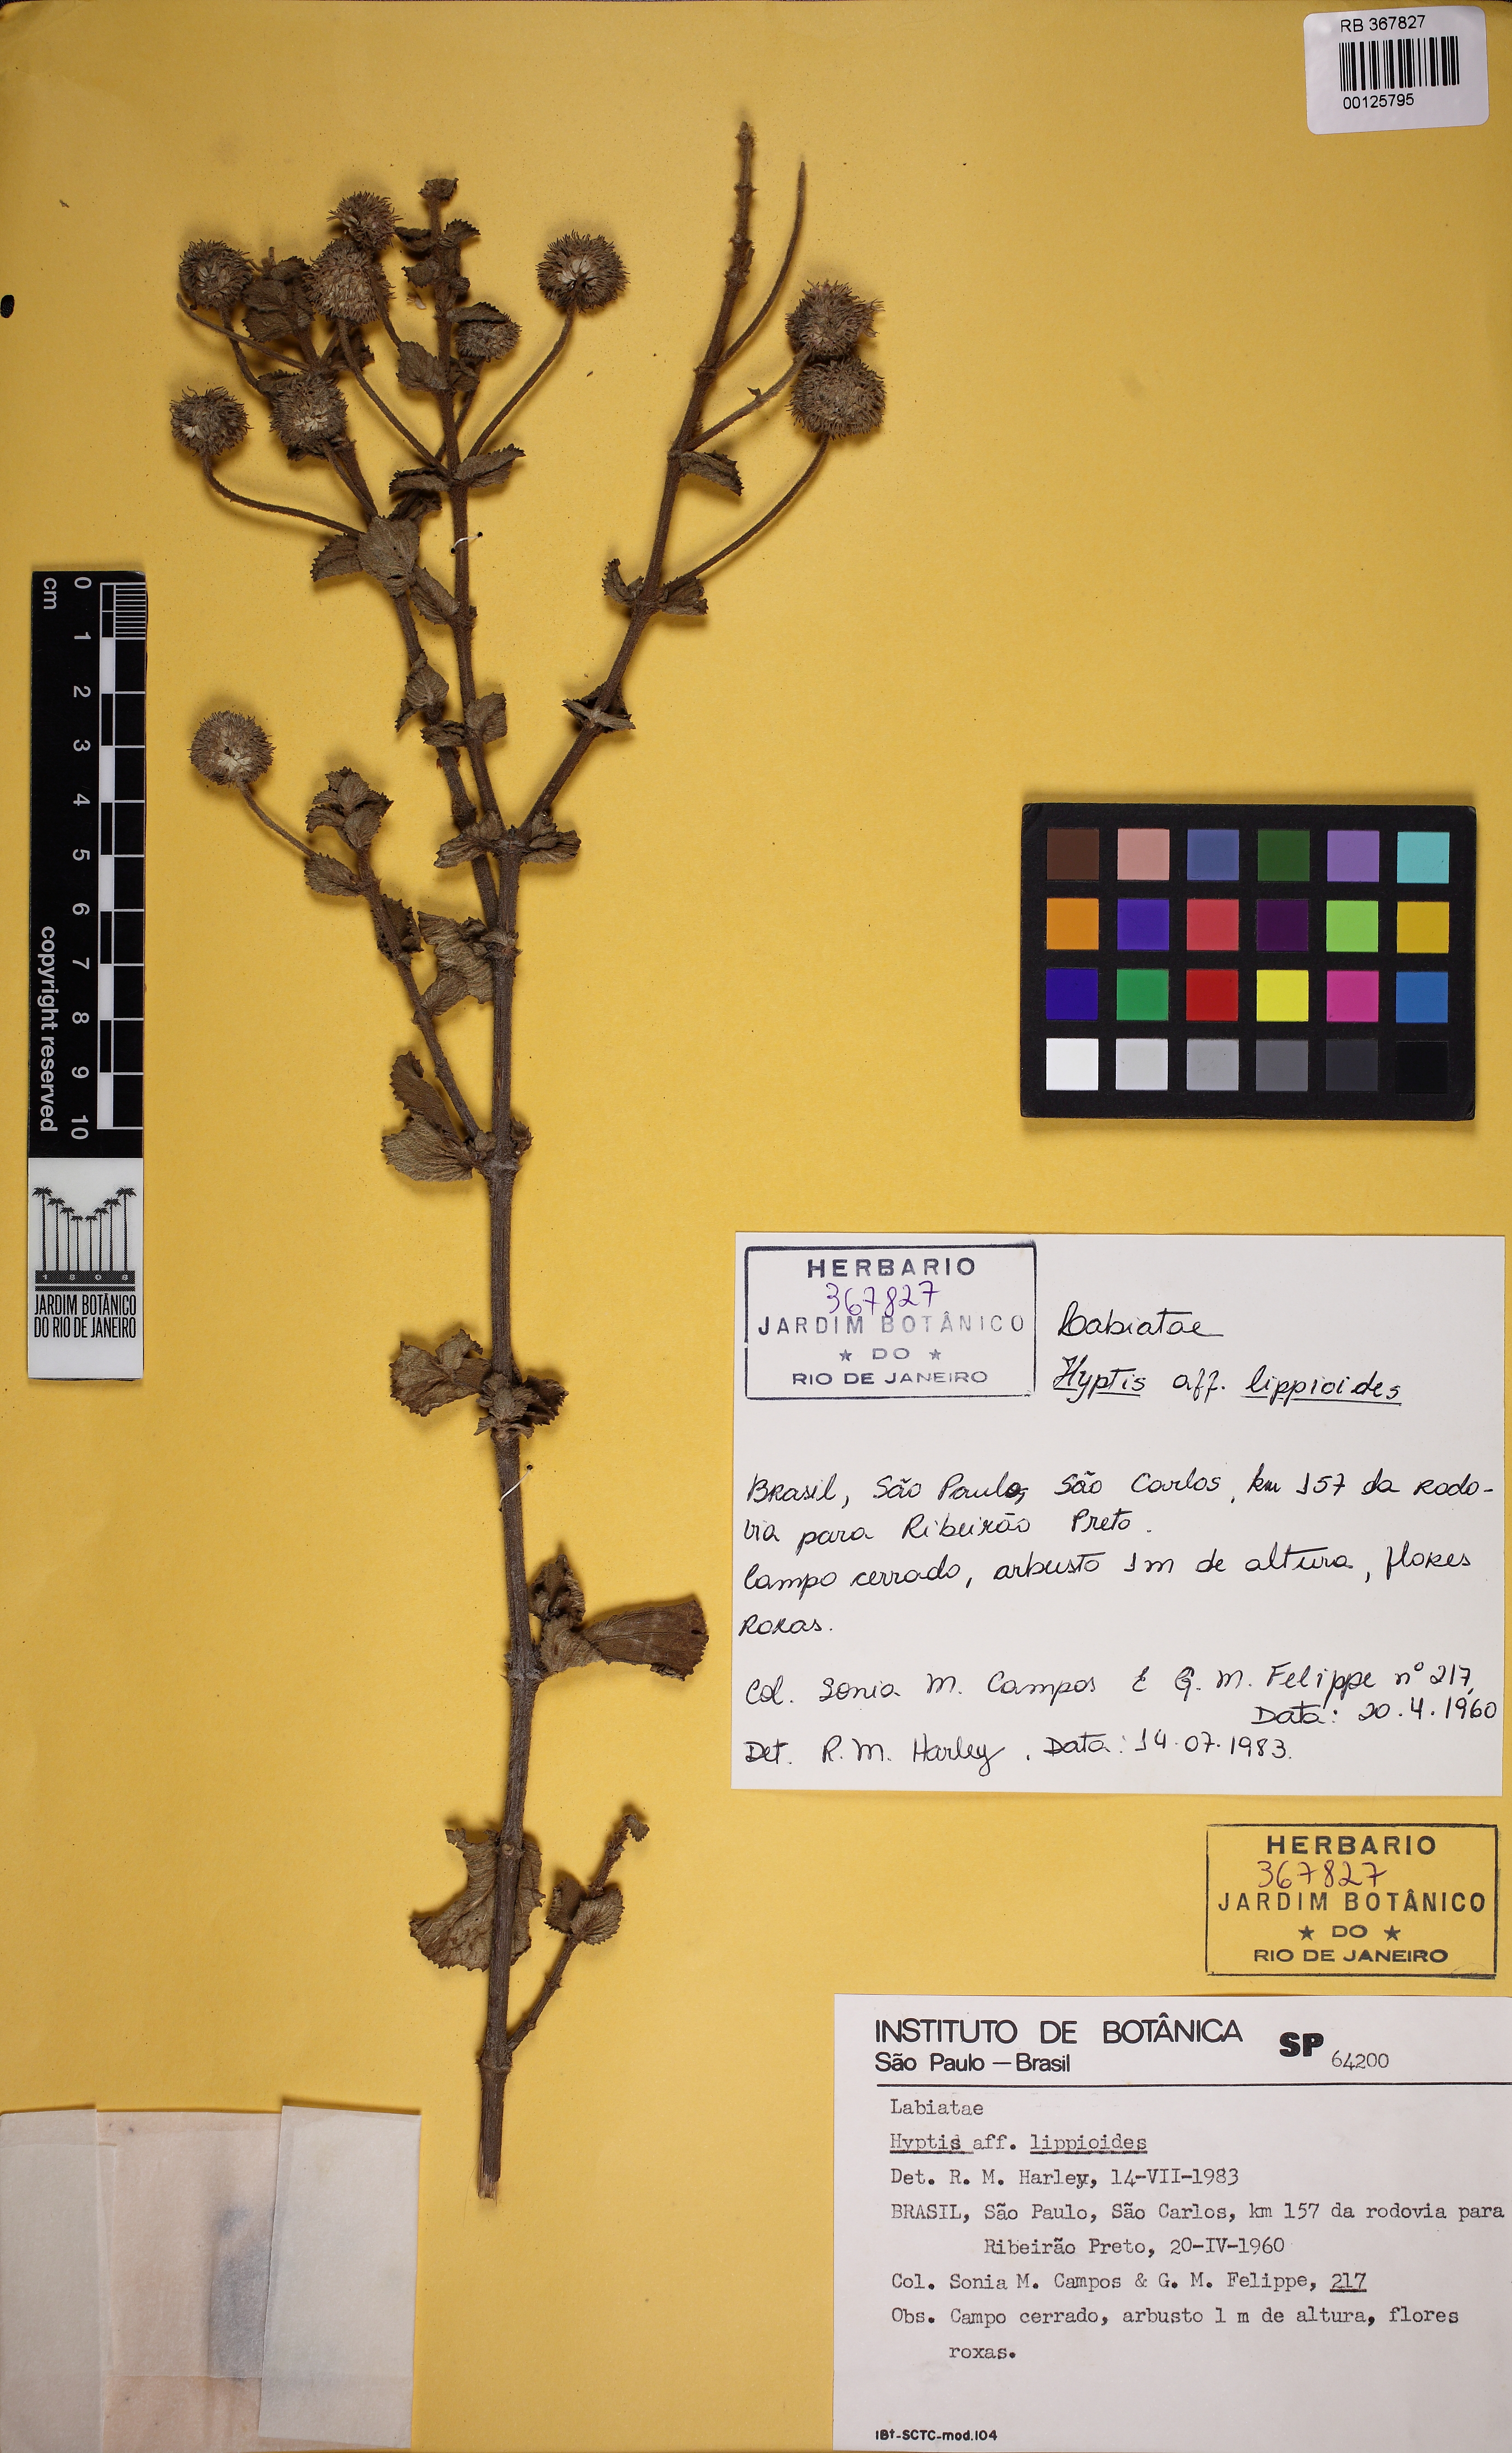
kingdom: Plantae
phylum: Tracheophyta
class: Magnoliopsida
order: Lamiales
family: Lamiaceae
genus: Cyanocephalus
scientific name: Cyanocephalus rugosus
